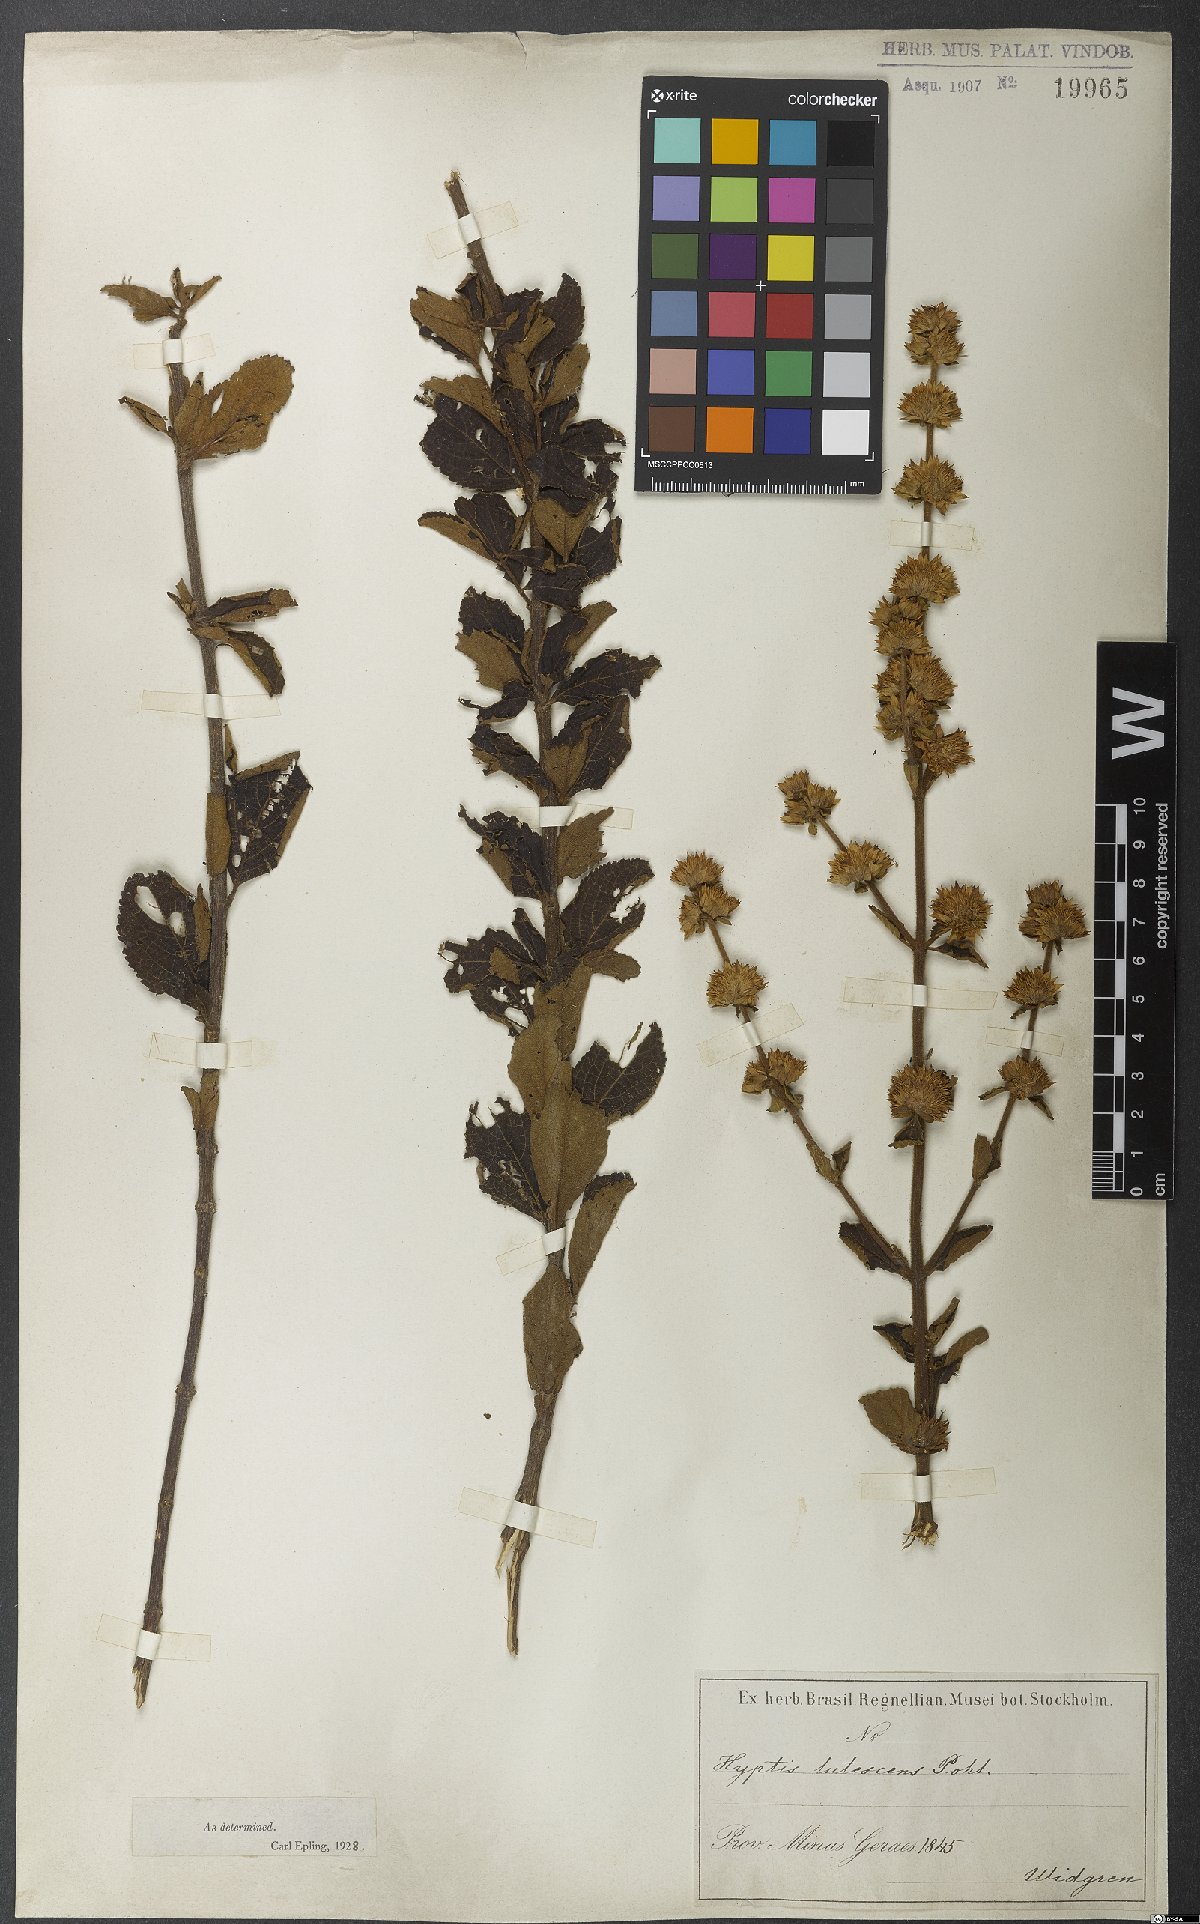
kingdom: Plantae
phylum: Tracheophyta
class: Magnoliopsida
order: Lamiales
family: Lamiaceae
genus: Hyptis
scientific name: Hyptis lutescens
